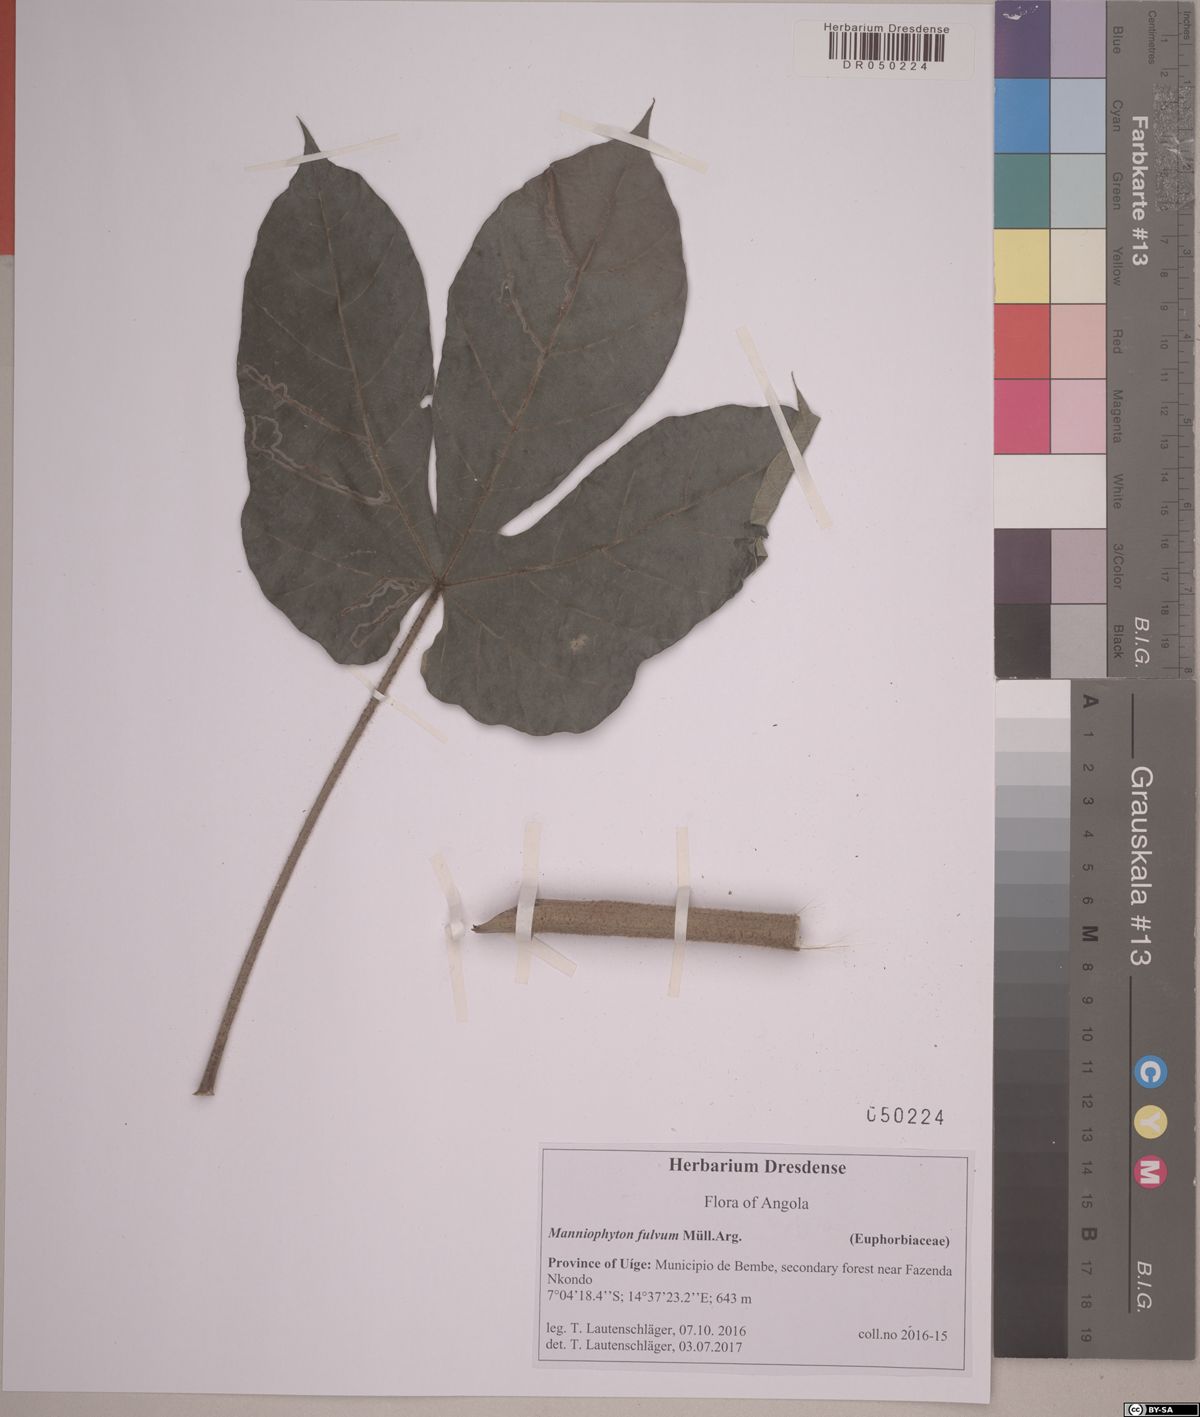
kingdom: Plantae
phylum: Tracheophyta
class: Magnoliopsida
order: Malpighiales
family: Euphorbiaceae
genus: Manniophyton
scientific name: Manniophyton fulvum
